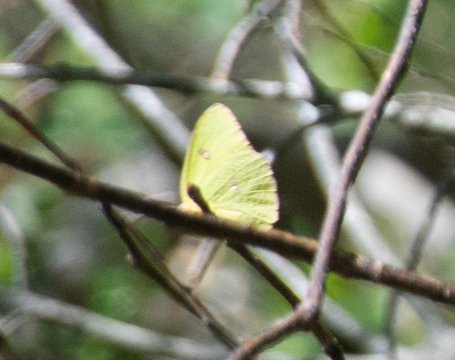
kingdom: Animalia
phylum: Arthropoda
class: Insecta
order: Lepidoptera
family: Pieridae
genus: Phoebis
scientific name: Phoebis sennae
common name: Cloudless Sulphur
